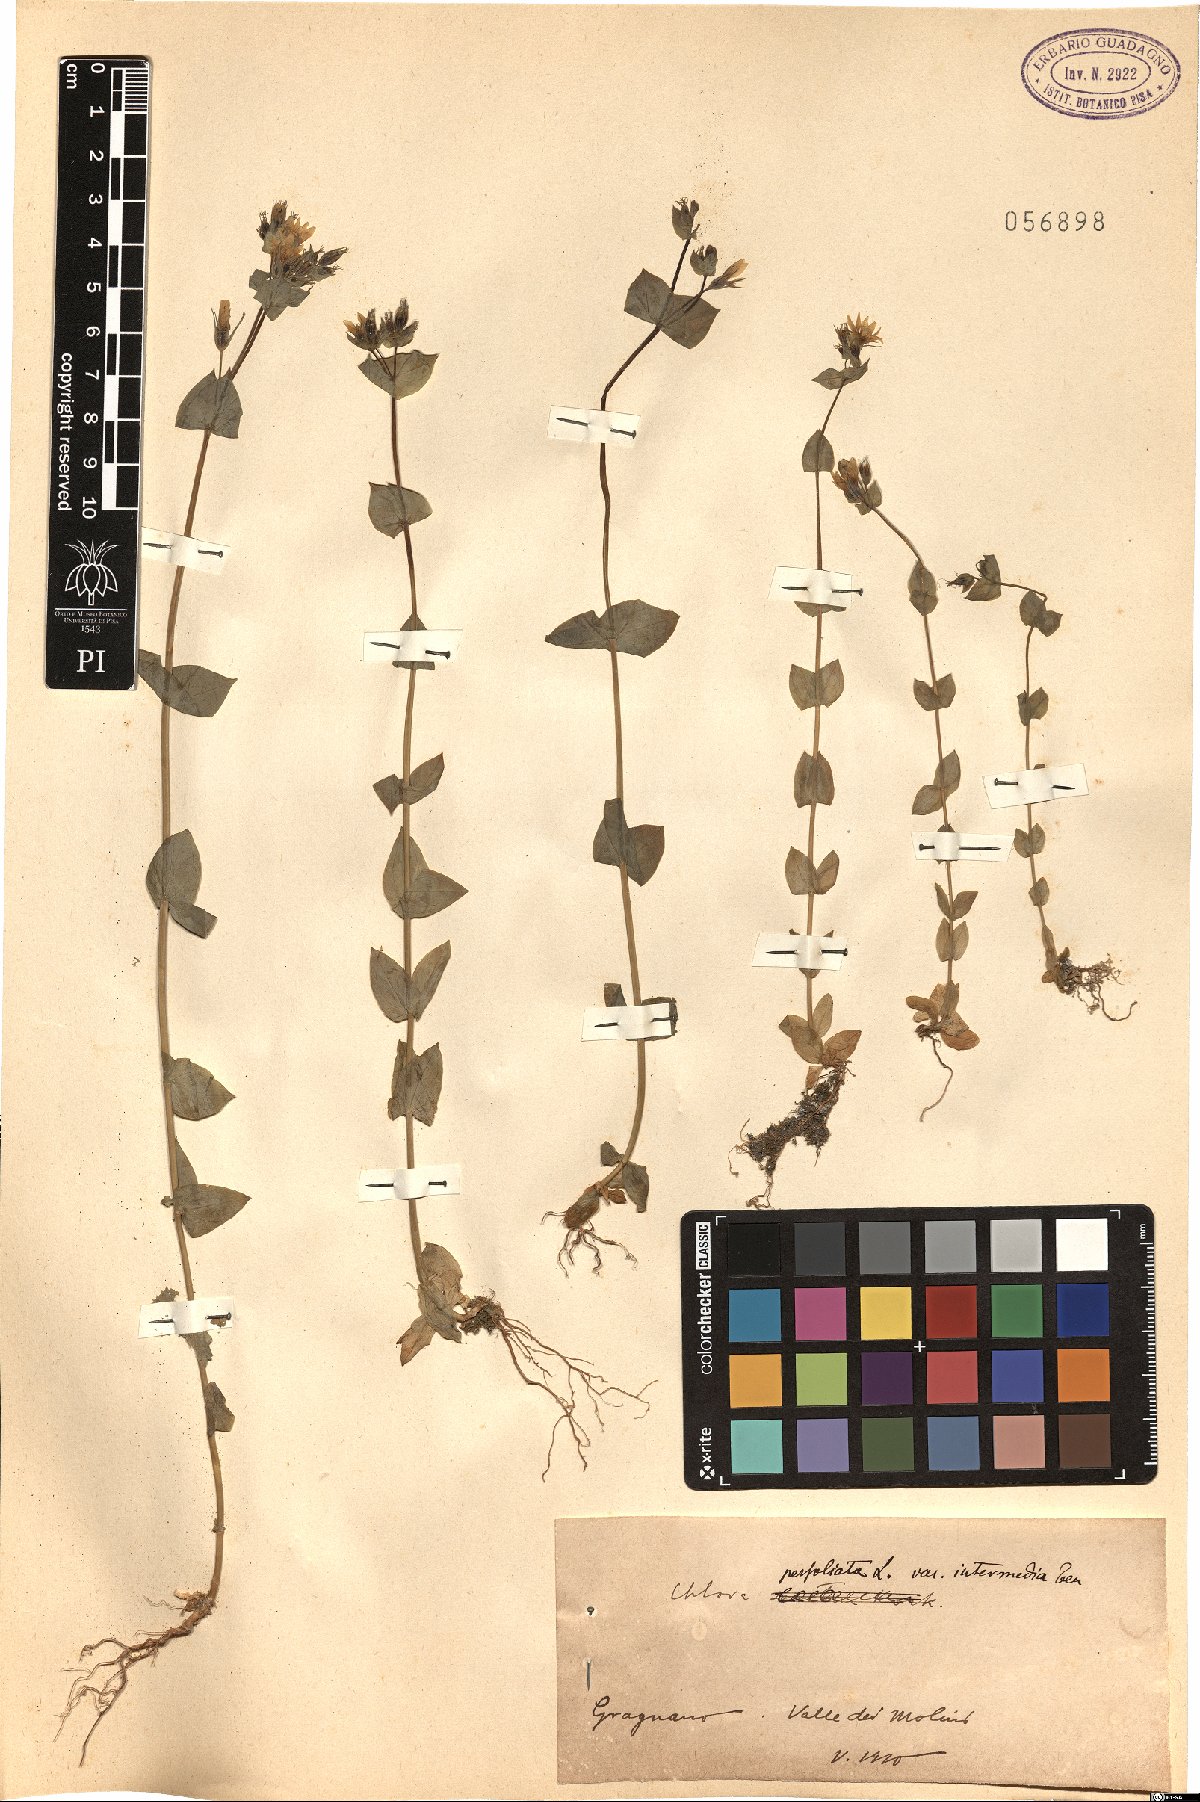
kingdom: Plantae
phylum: Tracheophyta
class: Magnoliopsida
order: Gentianales
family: Gentianaceae
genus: Blackstonia
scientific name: Blackstonia perfoliata
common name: Yellow-wort
